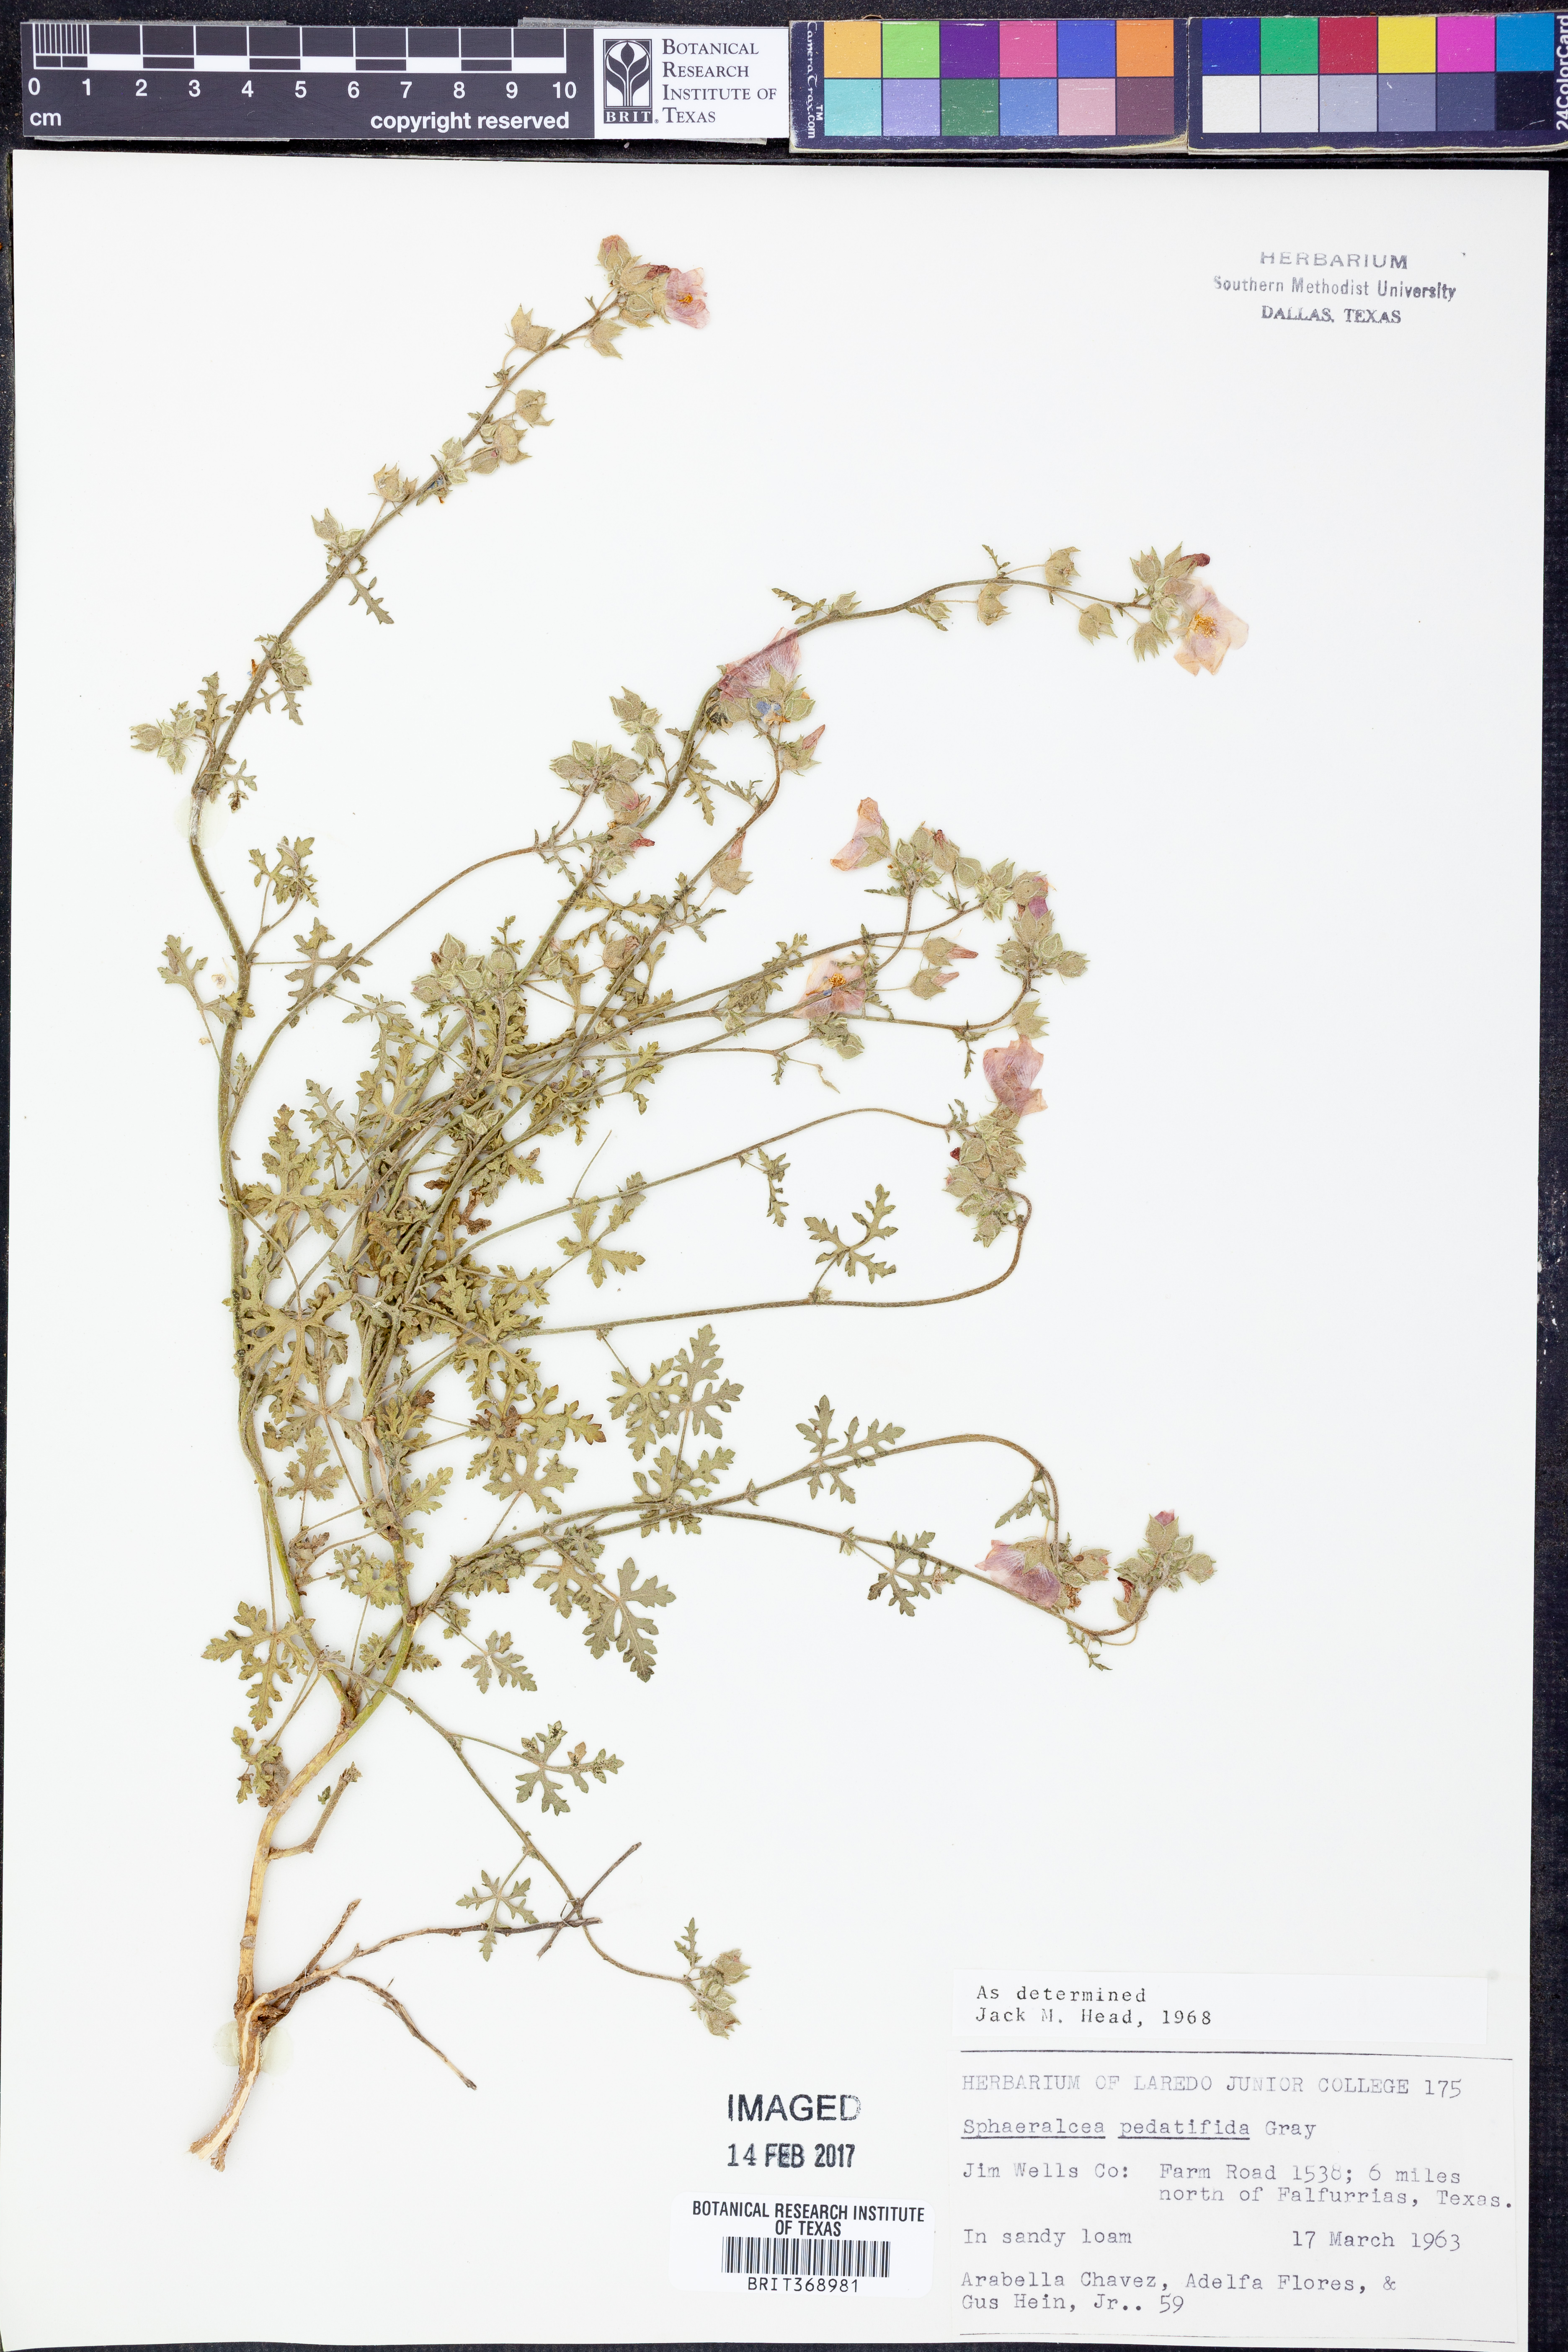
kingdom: Plantae
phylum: Tracheophyta
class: Magnoliopsida
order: Malvales
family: Malvaceae
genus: Sphaeralcea
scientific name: Sphaeralcea pedatifida
